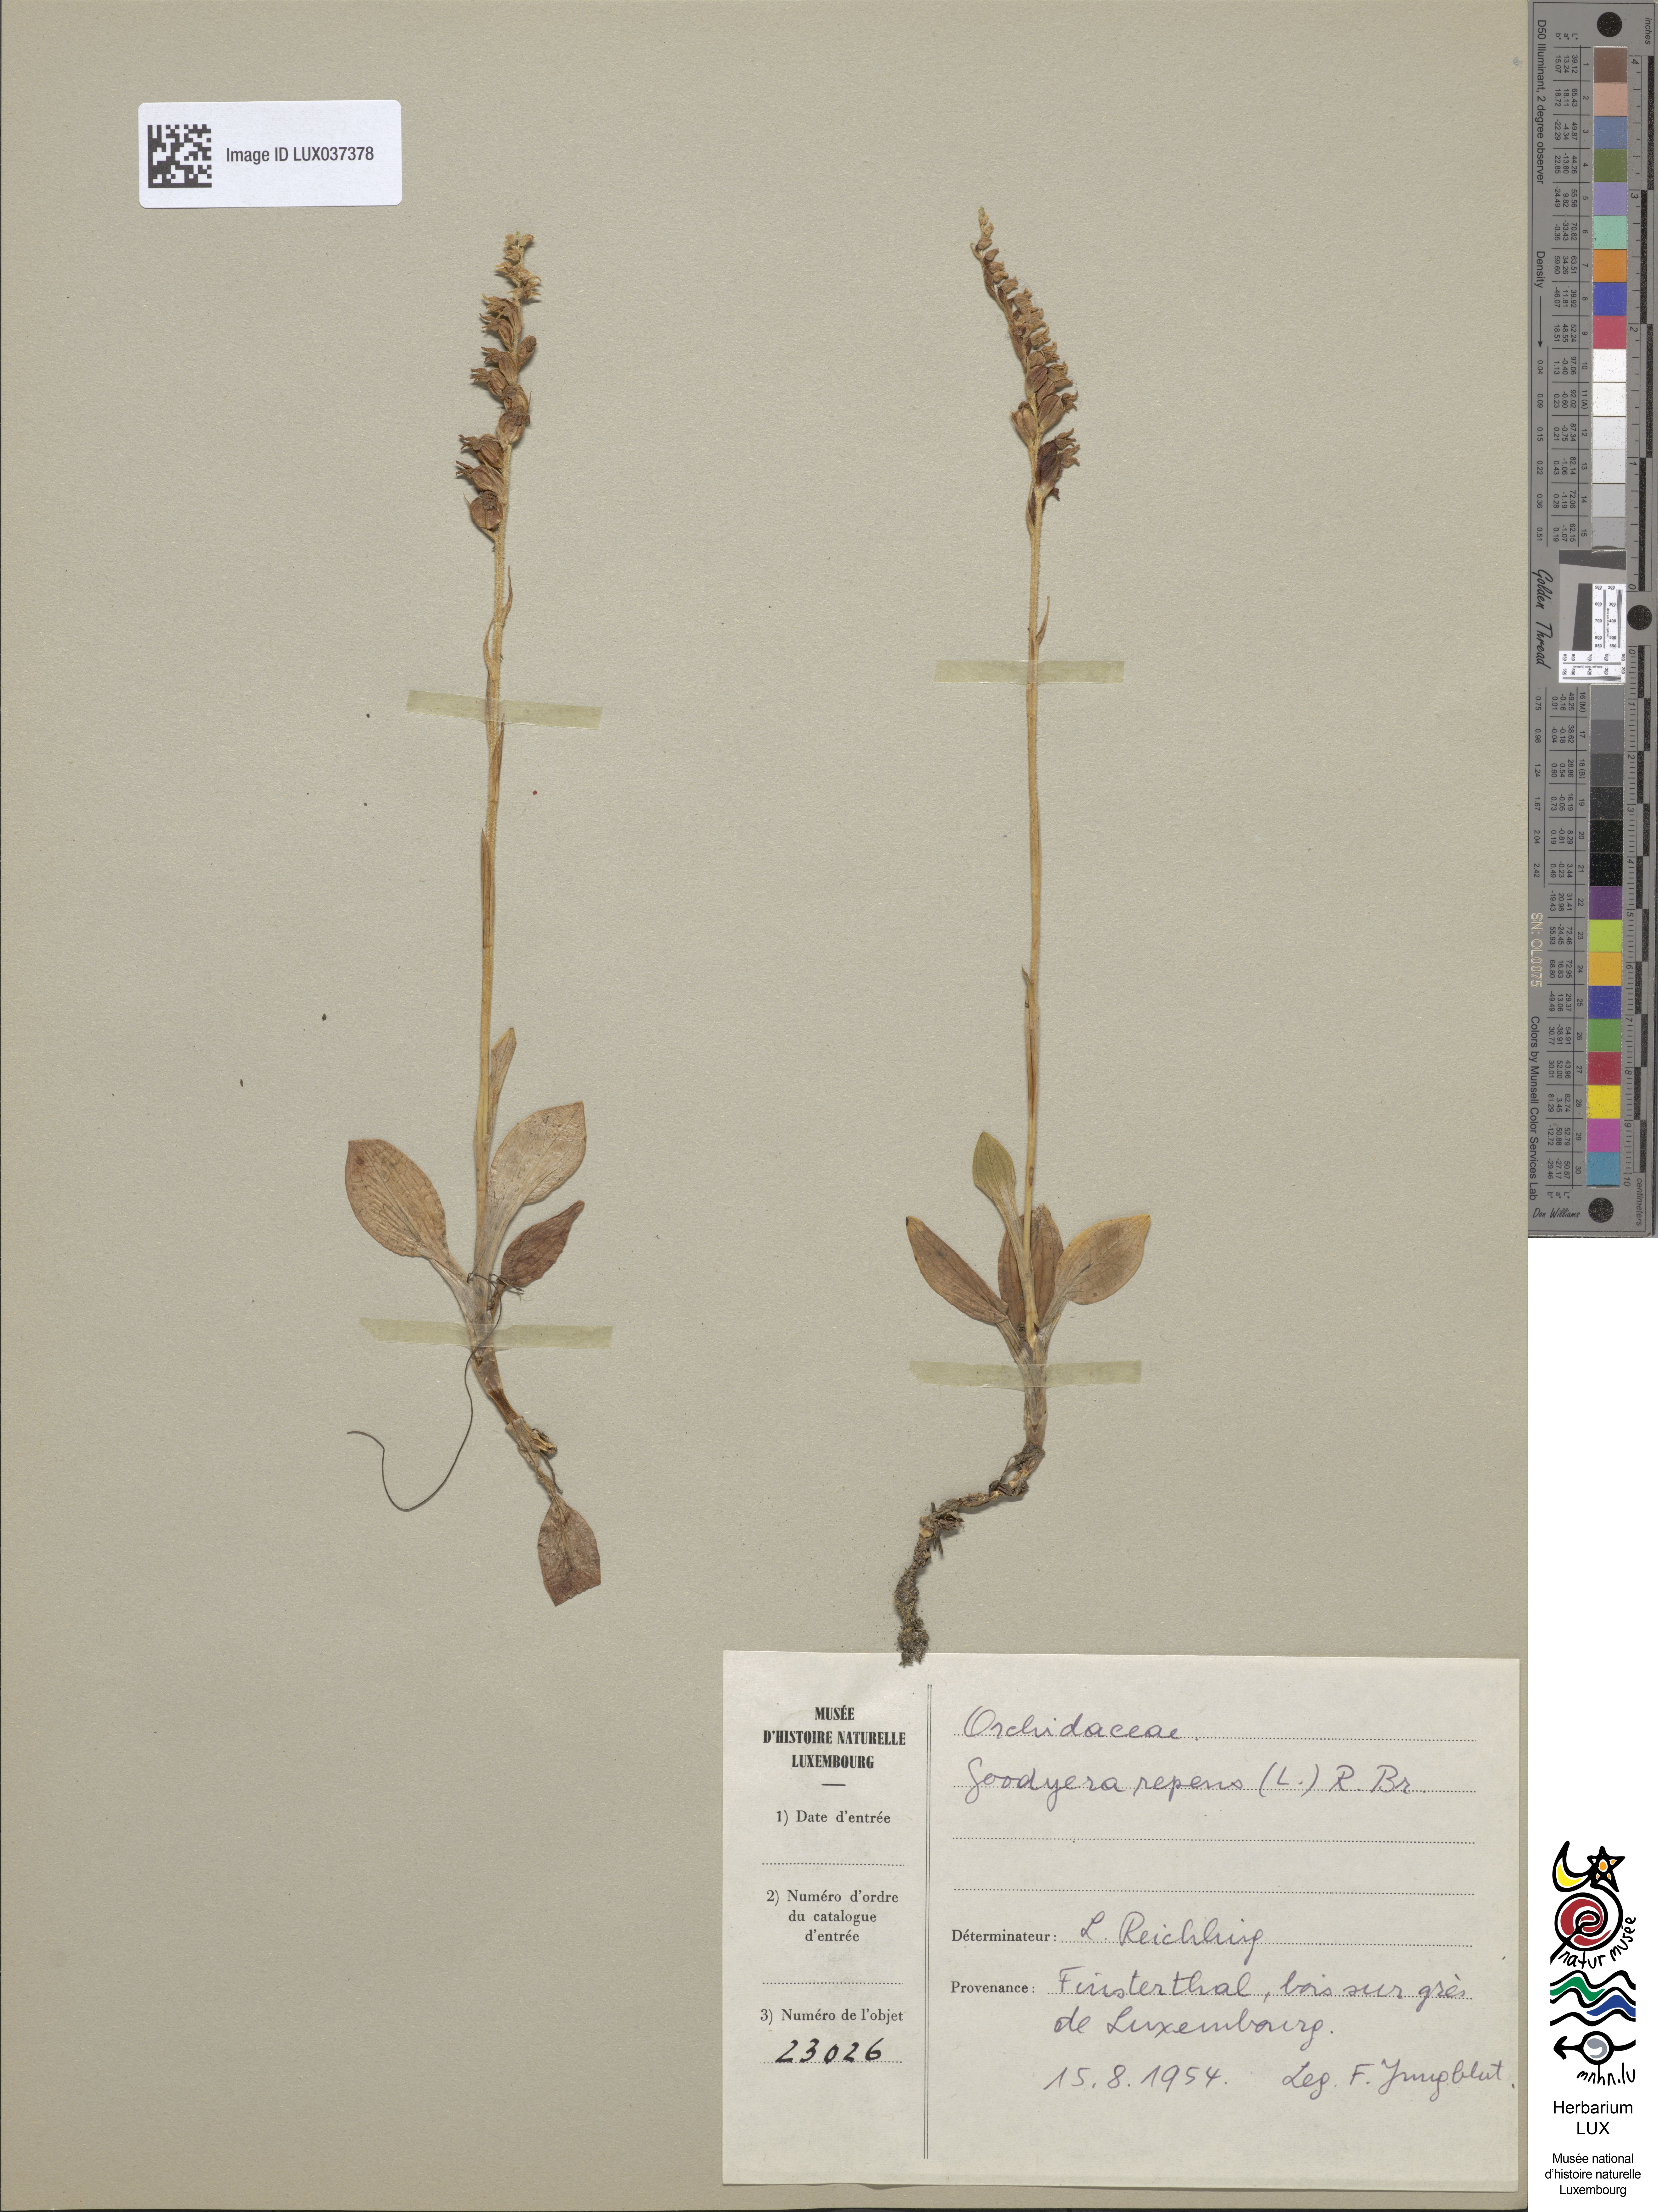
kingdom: Plantae
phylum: Tracheophyta
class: Liliopsida
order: Asparagales
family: Orchidaceae
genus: Goodyera
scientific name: Goodyera repens
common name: Creeping lady's-tresses
